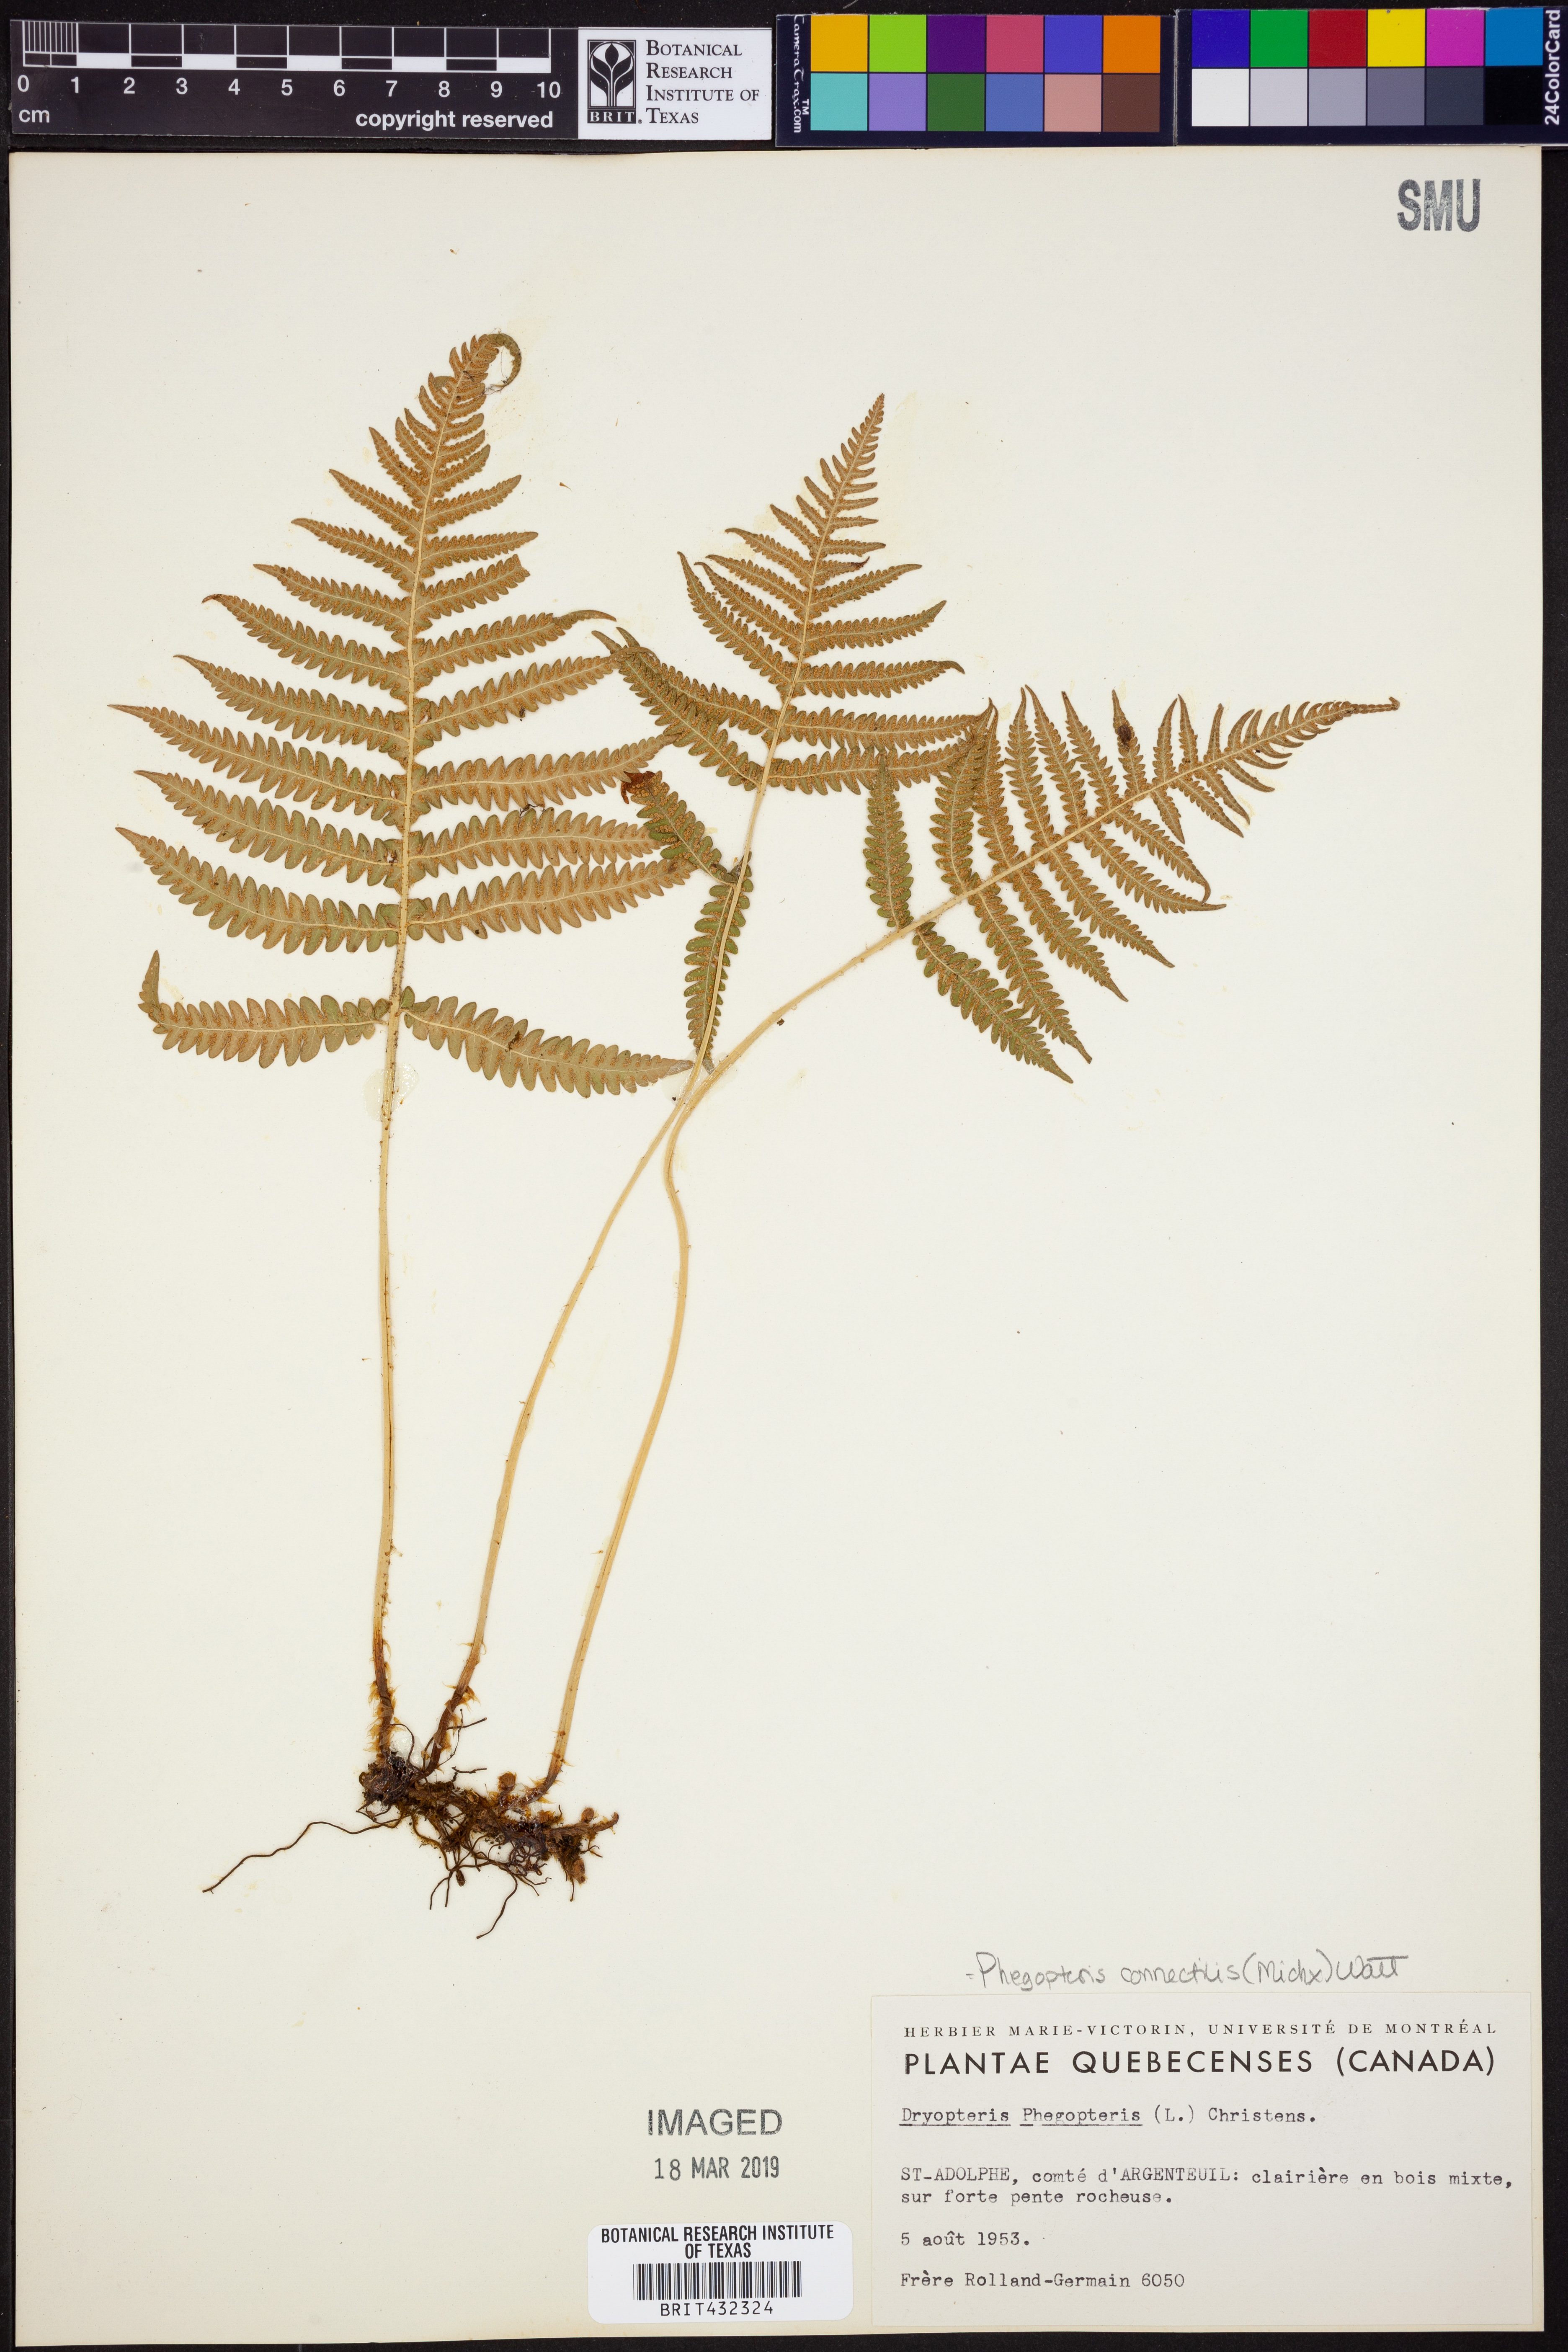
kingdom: Plantae
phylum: Tracheophyta
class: Polypodiopsida
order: Polypodiales
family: Thelypteridaceae
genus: Phegopteris
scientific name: Phegopteris connectilis
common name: Beech fern
